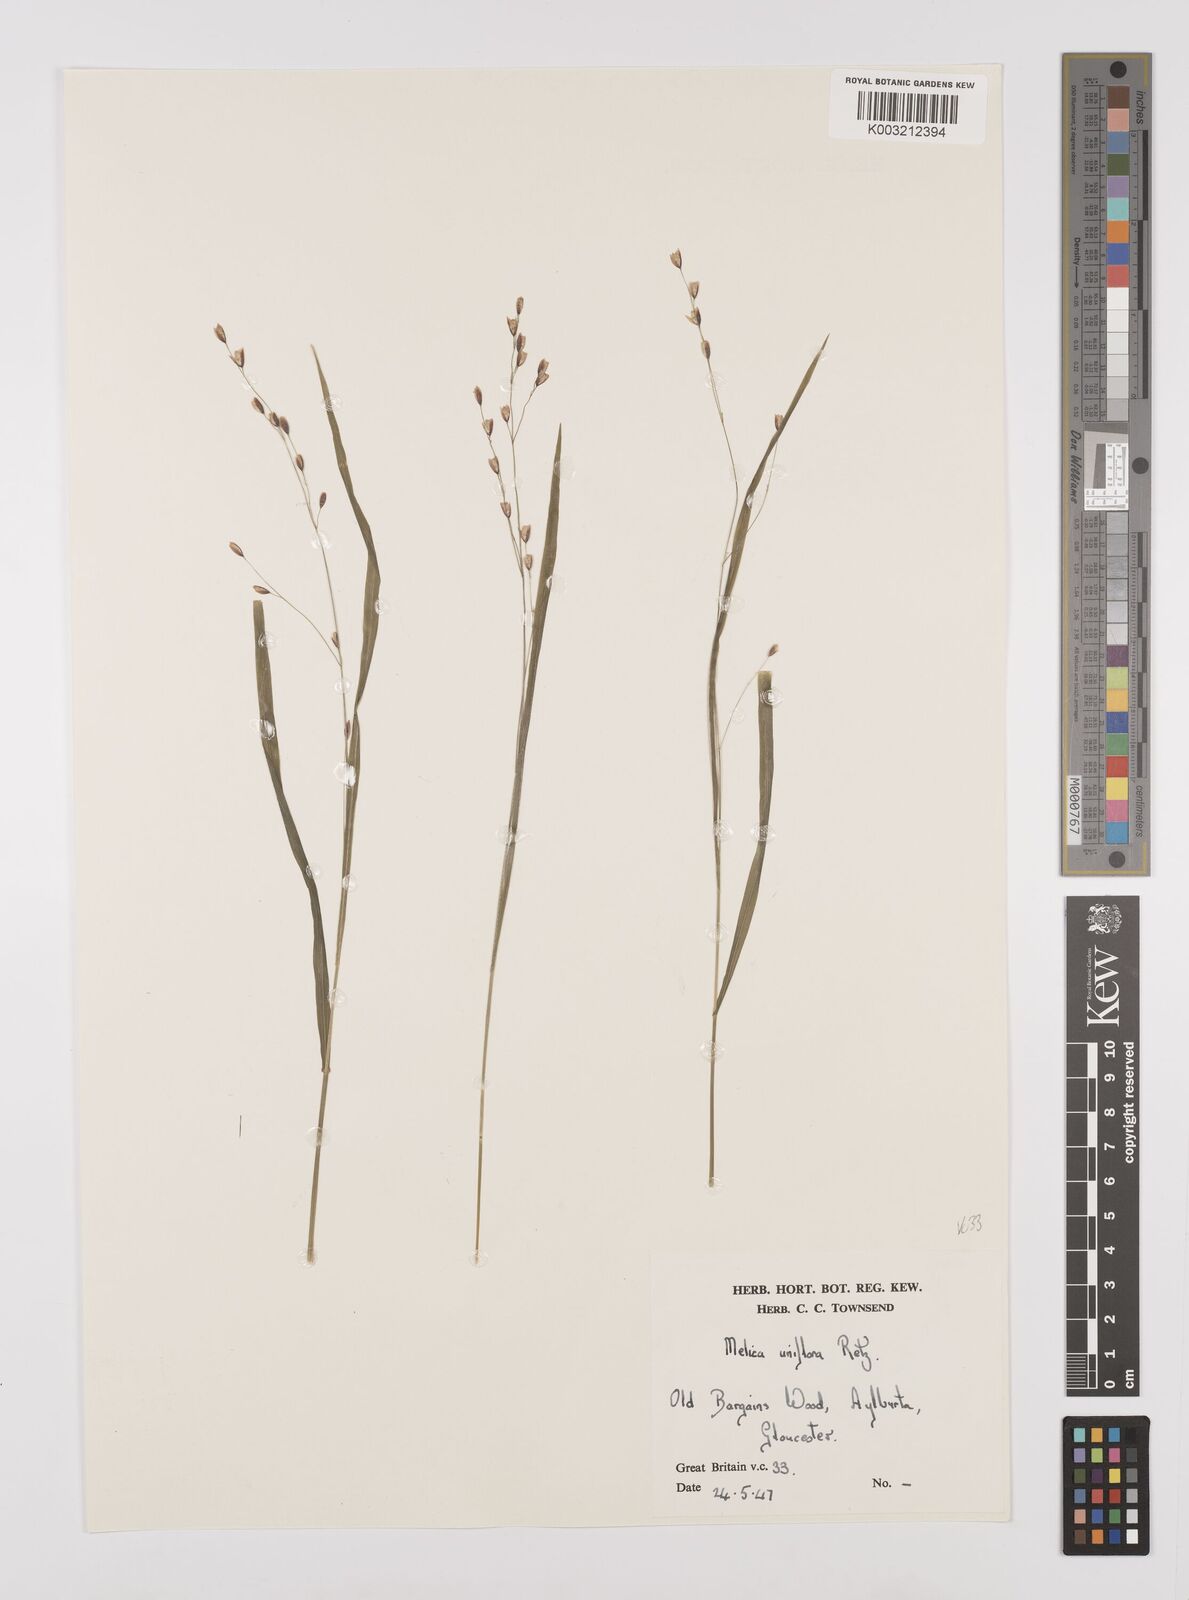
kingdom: Plantae
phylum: Tracheophyta
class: Liliopsida
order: Poales
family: Poaceae
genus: Melica
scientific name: Melica uniflora
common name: Wood melick
